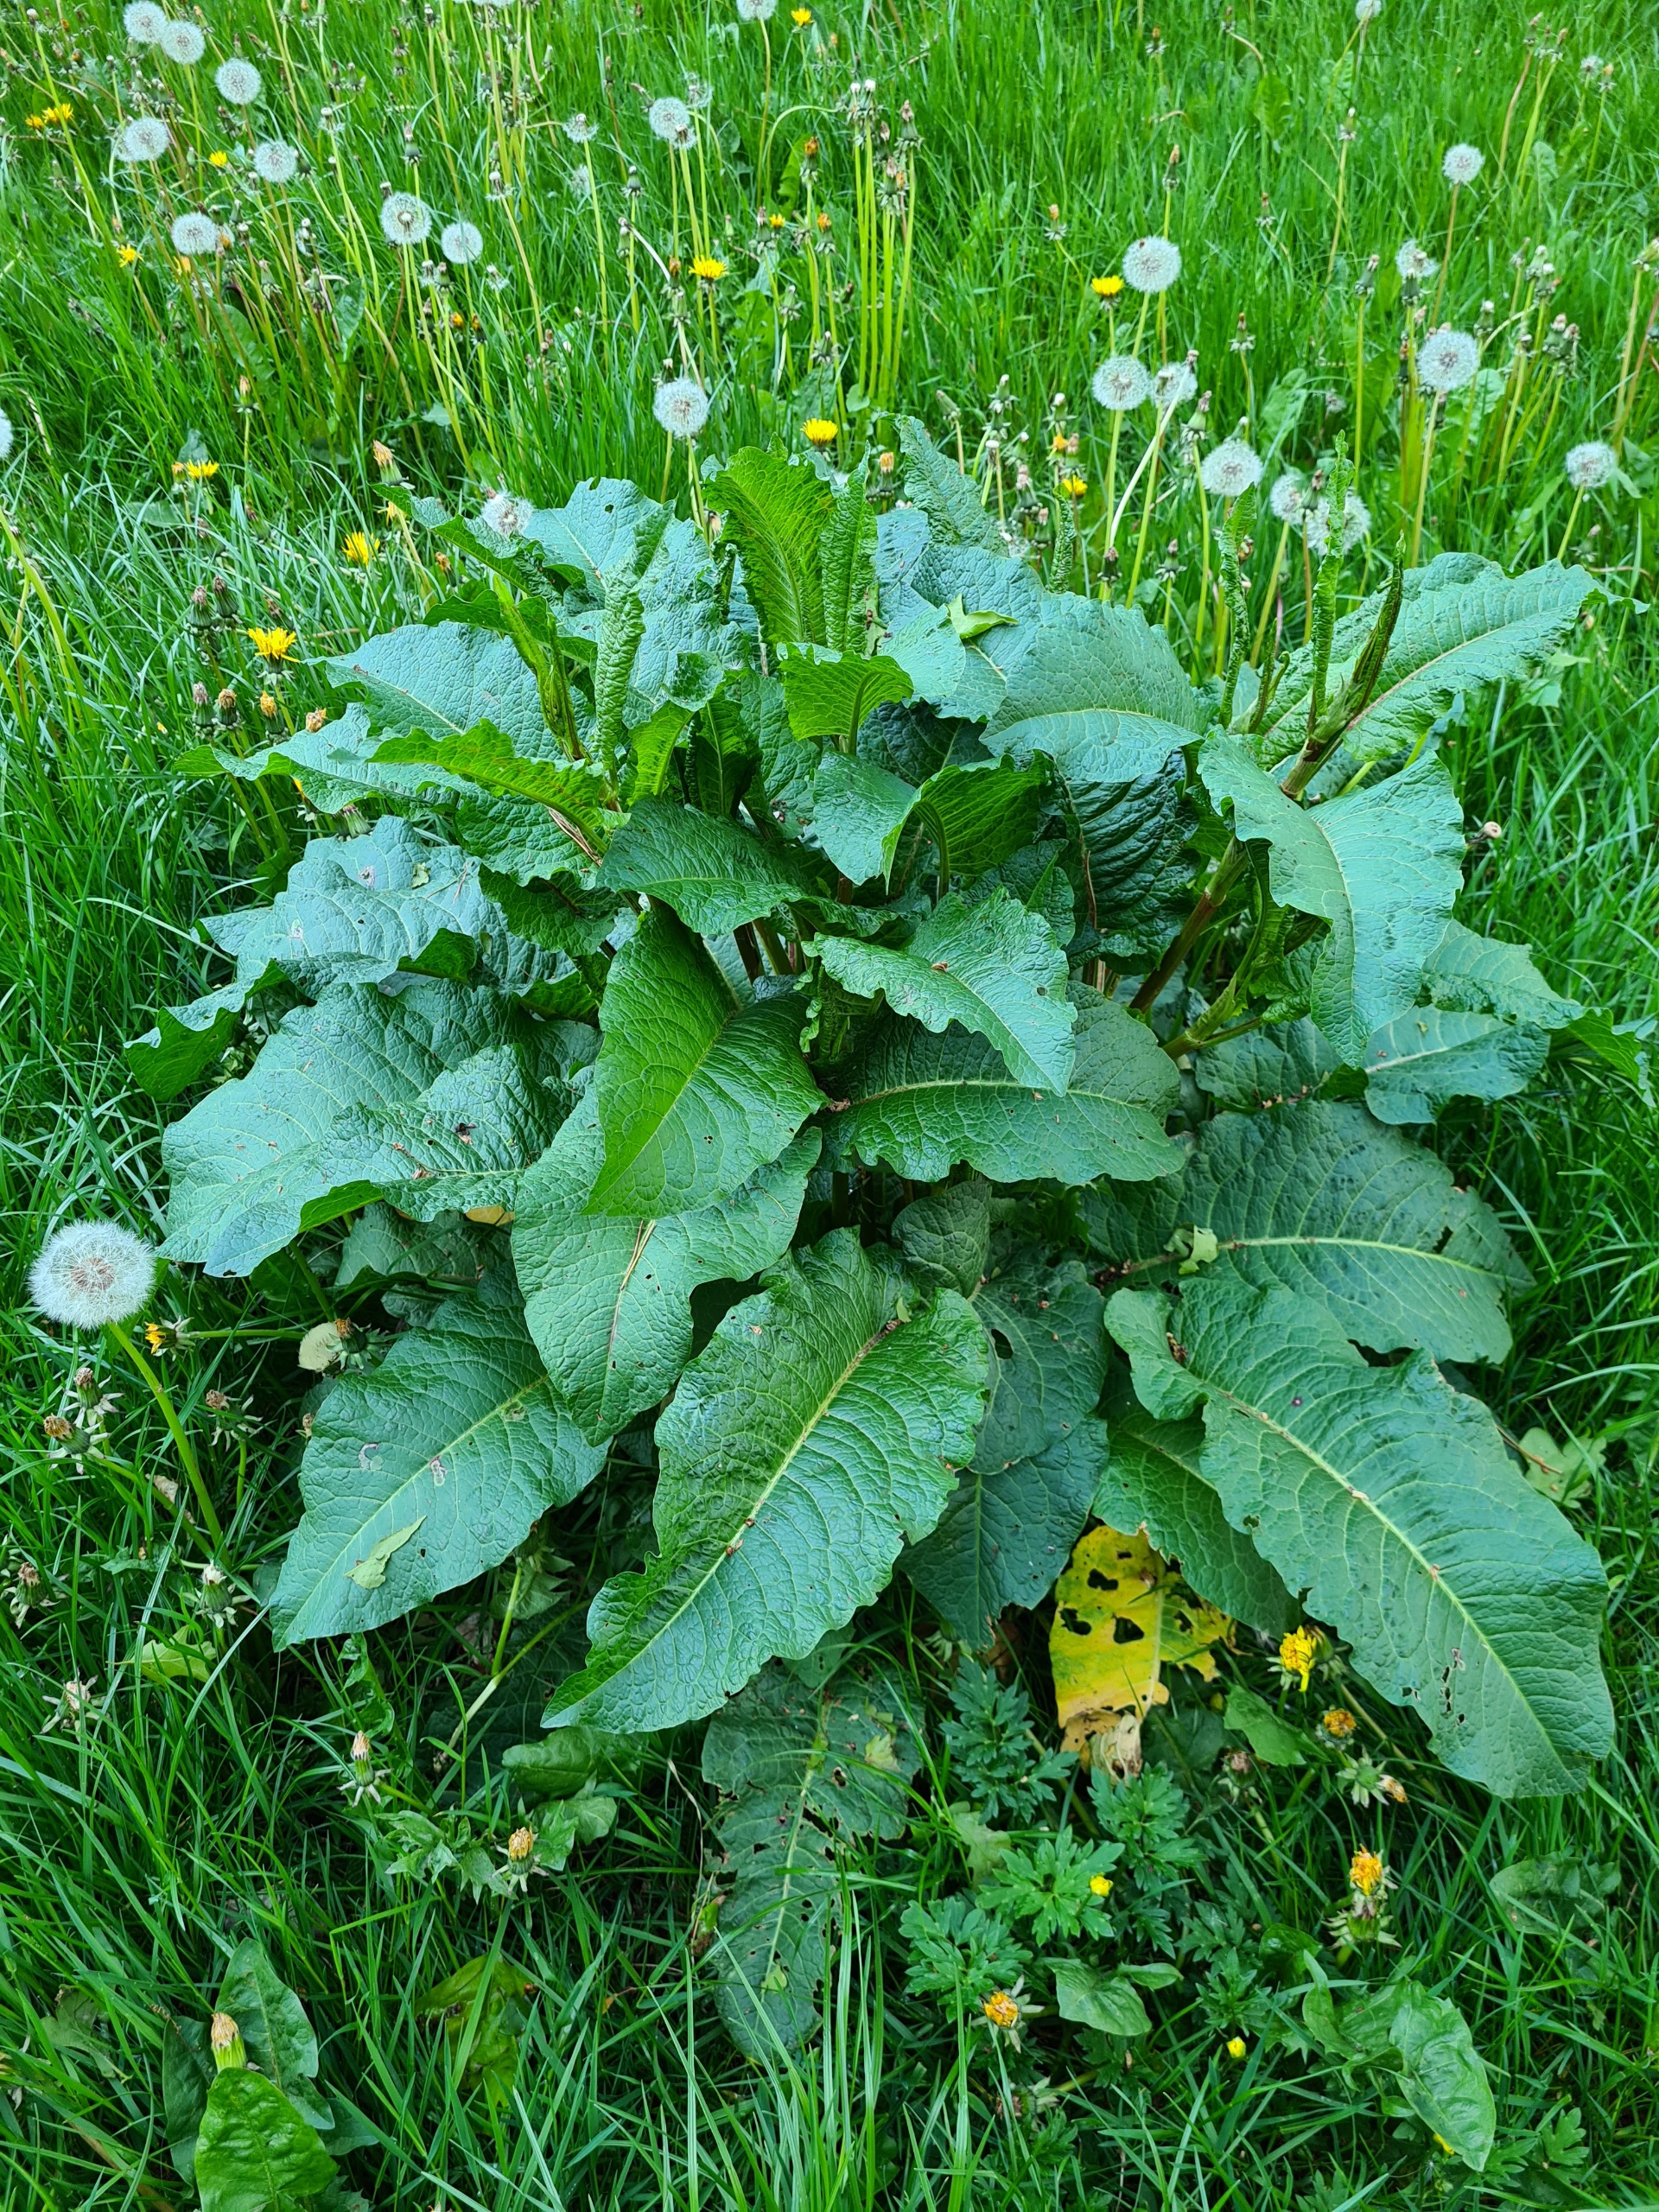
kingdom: Plantae
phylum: Tracheophyta
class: Magnoliopsida
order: Caryophyllales
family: Polygonaceae
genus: Rumex
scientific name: Rumex obtusifolius
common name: Butbladet skræppe
